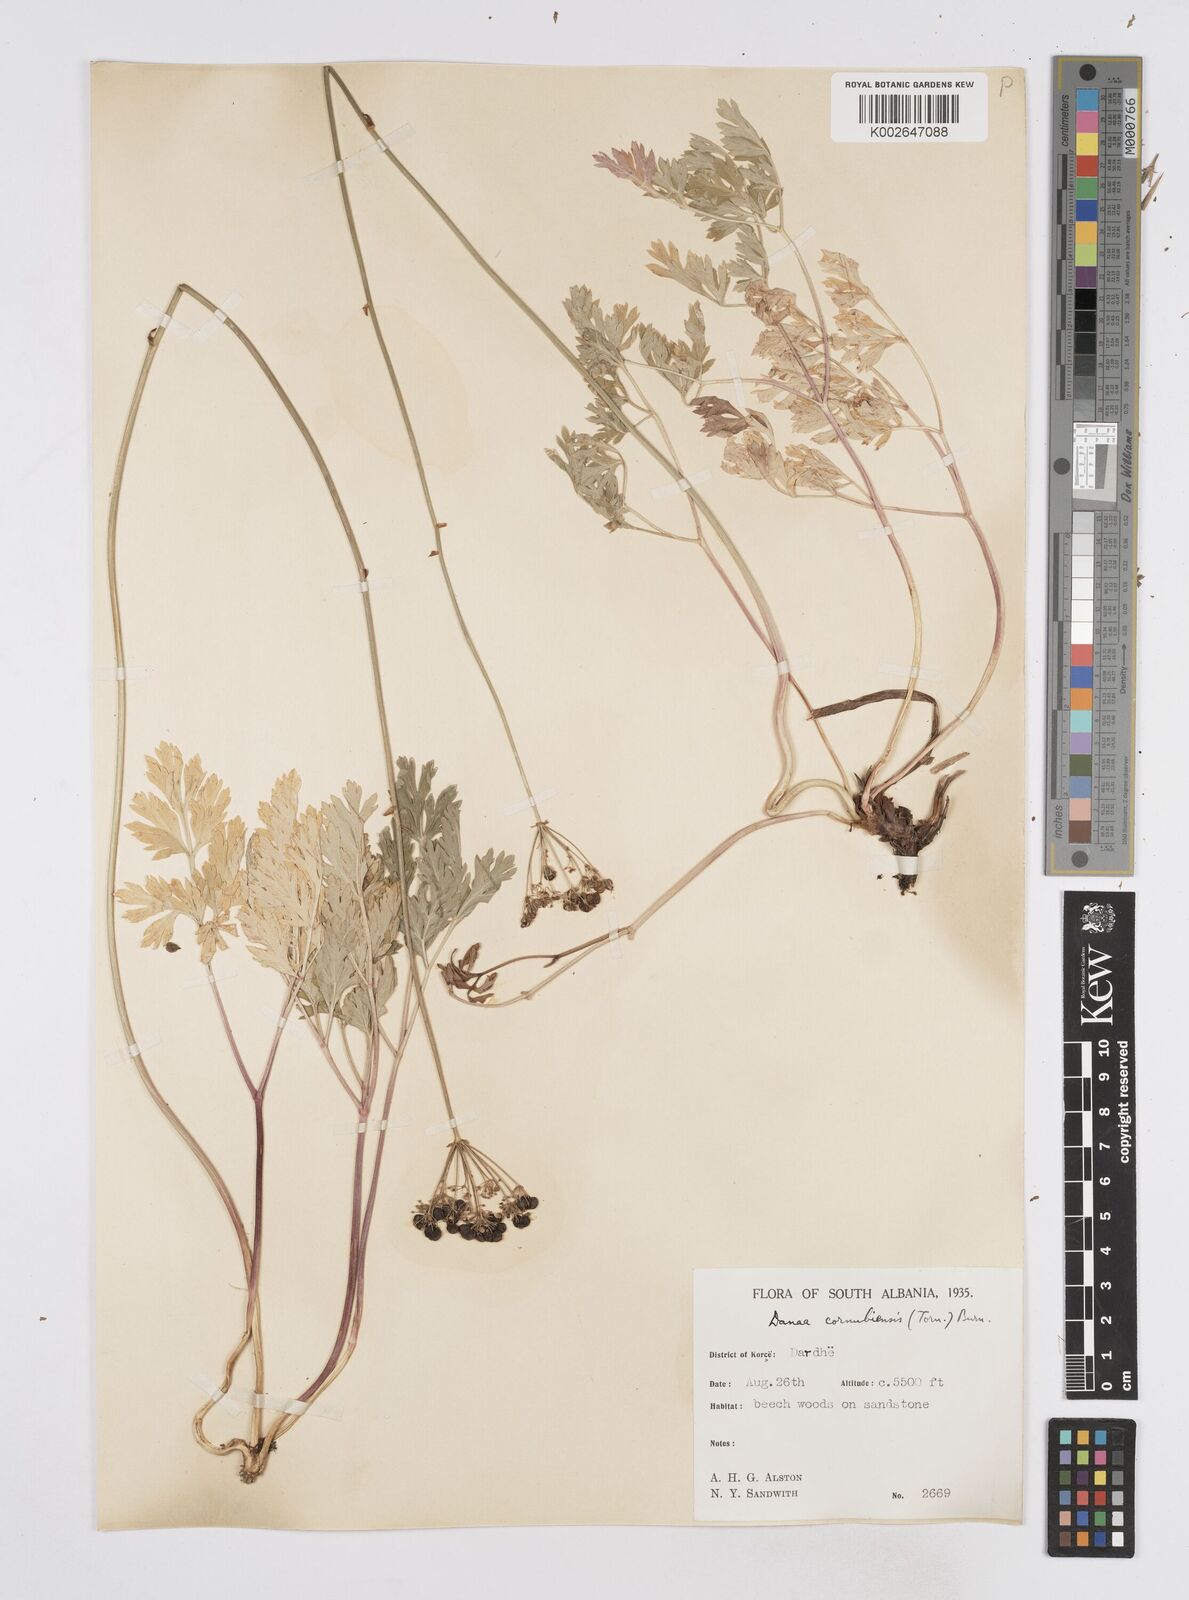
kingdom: Plantae
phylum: Tracheophyta
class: Magnoliopsida
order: Apiales
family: Apiaceae
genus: Physospermum
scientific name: Physospermum cornubiense
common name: Bladderseed
